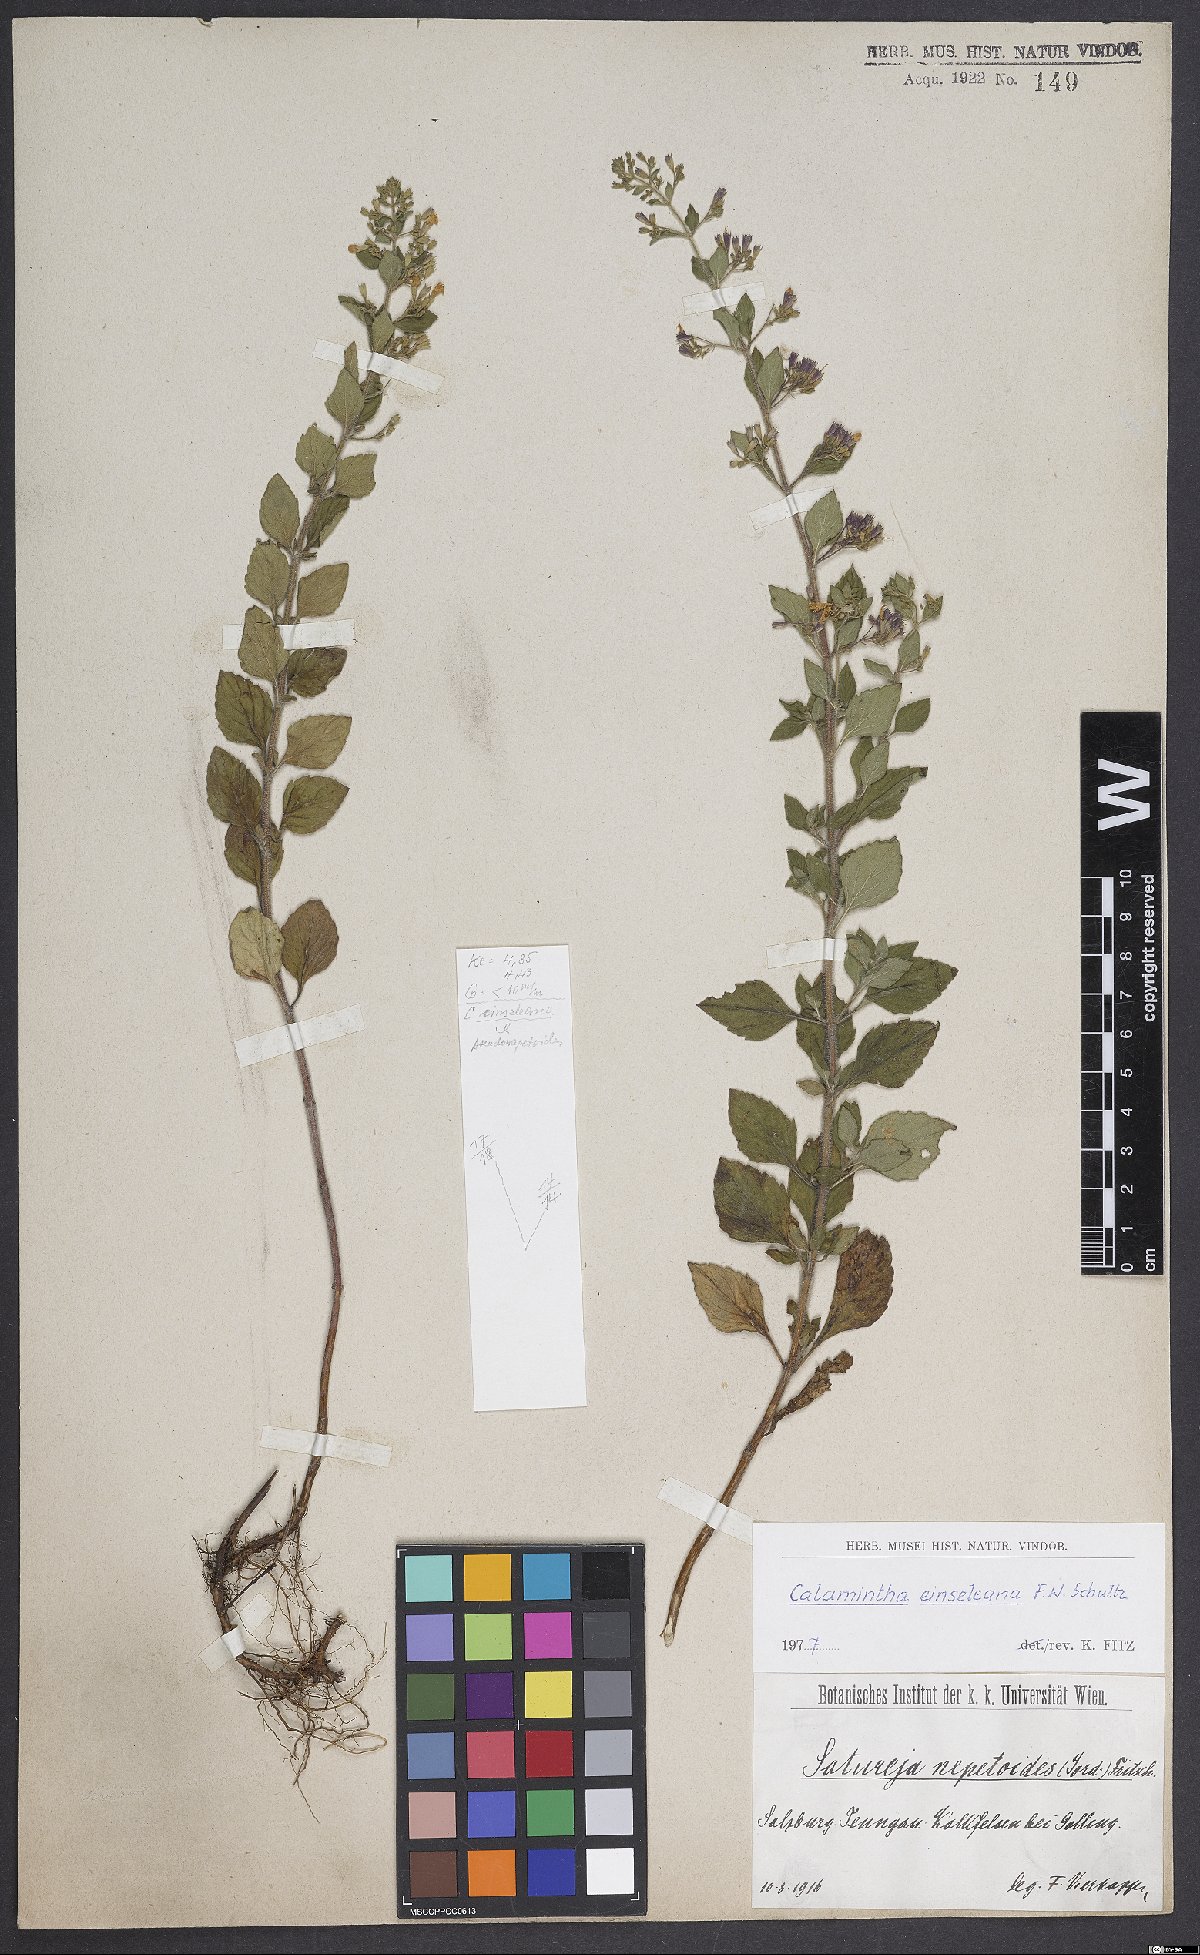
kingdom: Plantae
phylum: Tracheophyta
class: Magnoliopsida
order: Lamiales
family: Lamiaceae
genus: Clinopodium
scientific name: Clinopodium nepeta
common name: Lesser calamint
